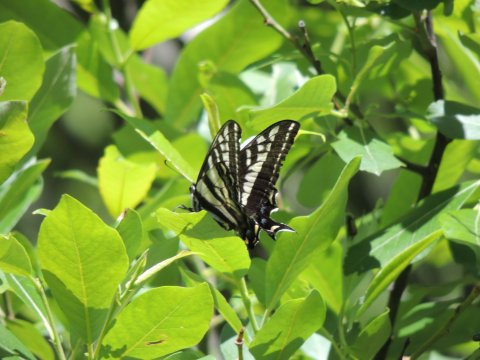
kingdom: Animalia
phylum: Arthropoda
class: Insecta
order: Lepidoptera
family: Papilionidae
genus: Pterourus
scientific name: Pterourus eurymedon
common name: Pale Swallowtail
